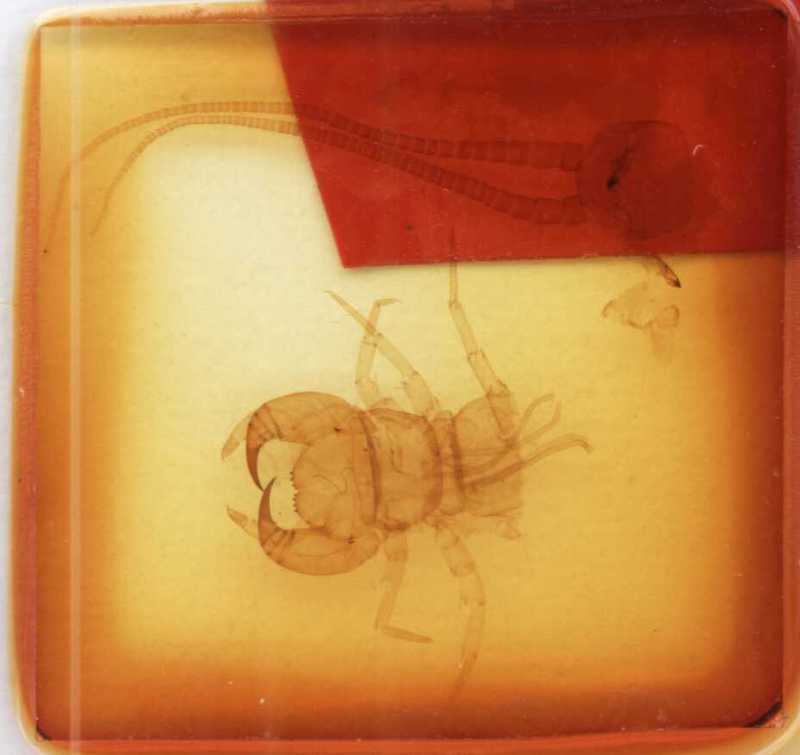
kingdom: Animalia
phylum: Arthropoda
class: Chilopoda
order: Lithobiomorpha
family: Lithobiidae
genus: Lithobius
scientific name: Lithobius viriatus
